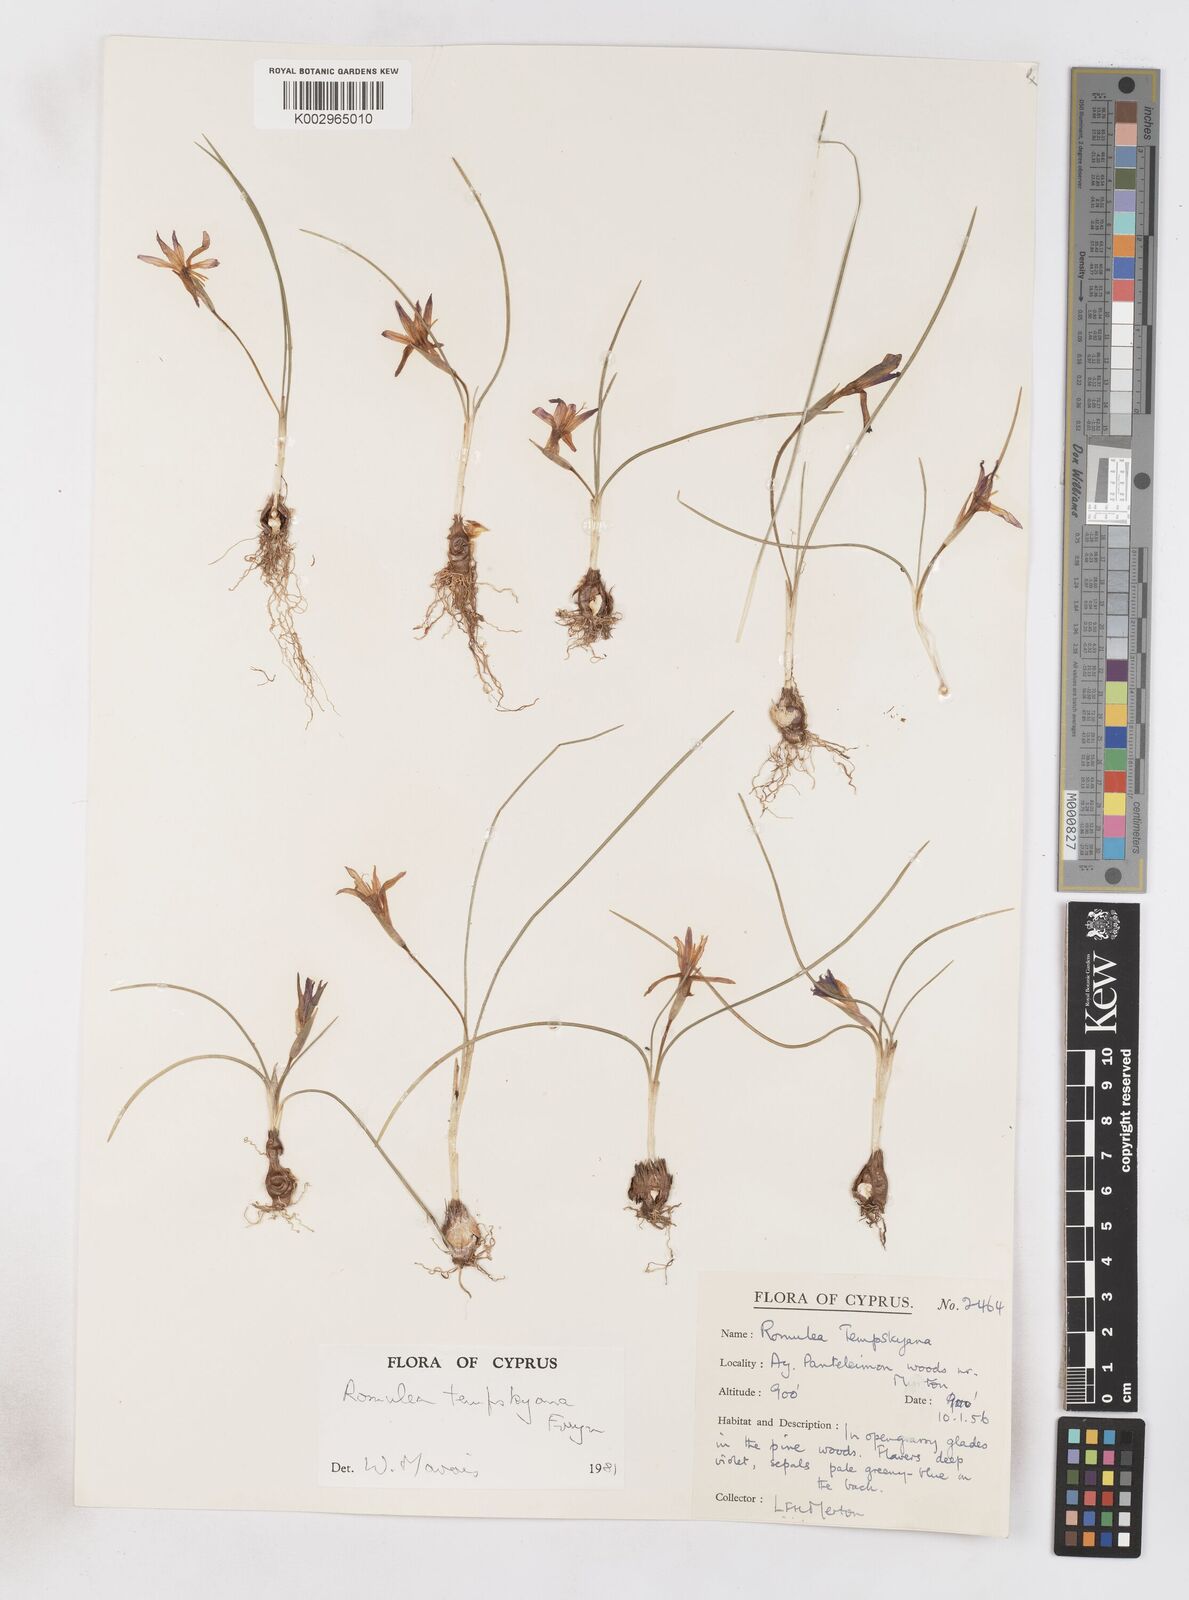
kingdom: Plantae
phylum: Tracheophyta
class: Liliopsida
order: Asparagales
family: Iridaceae
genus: Romulea
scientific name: Romulea tempskyana
